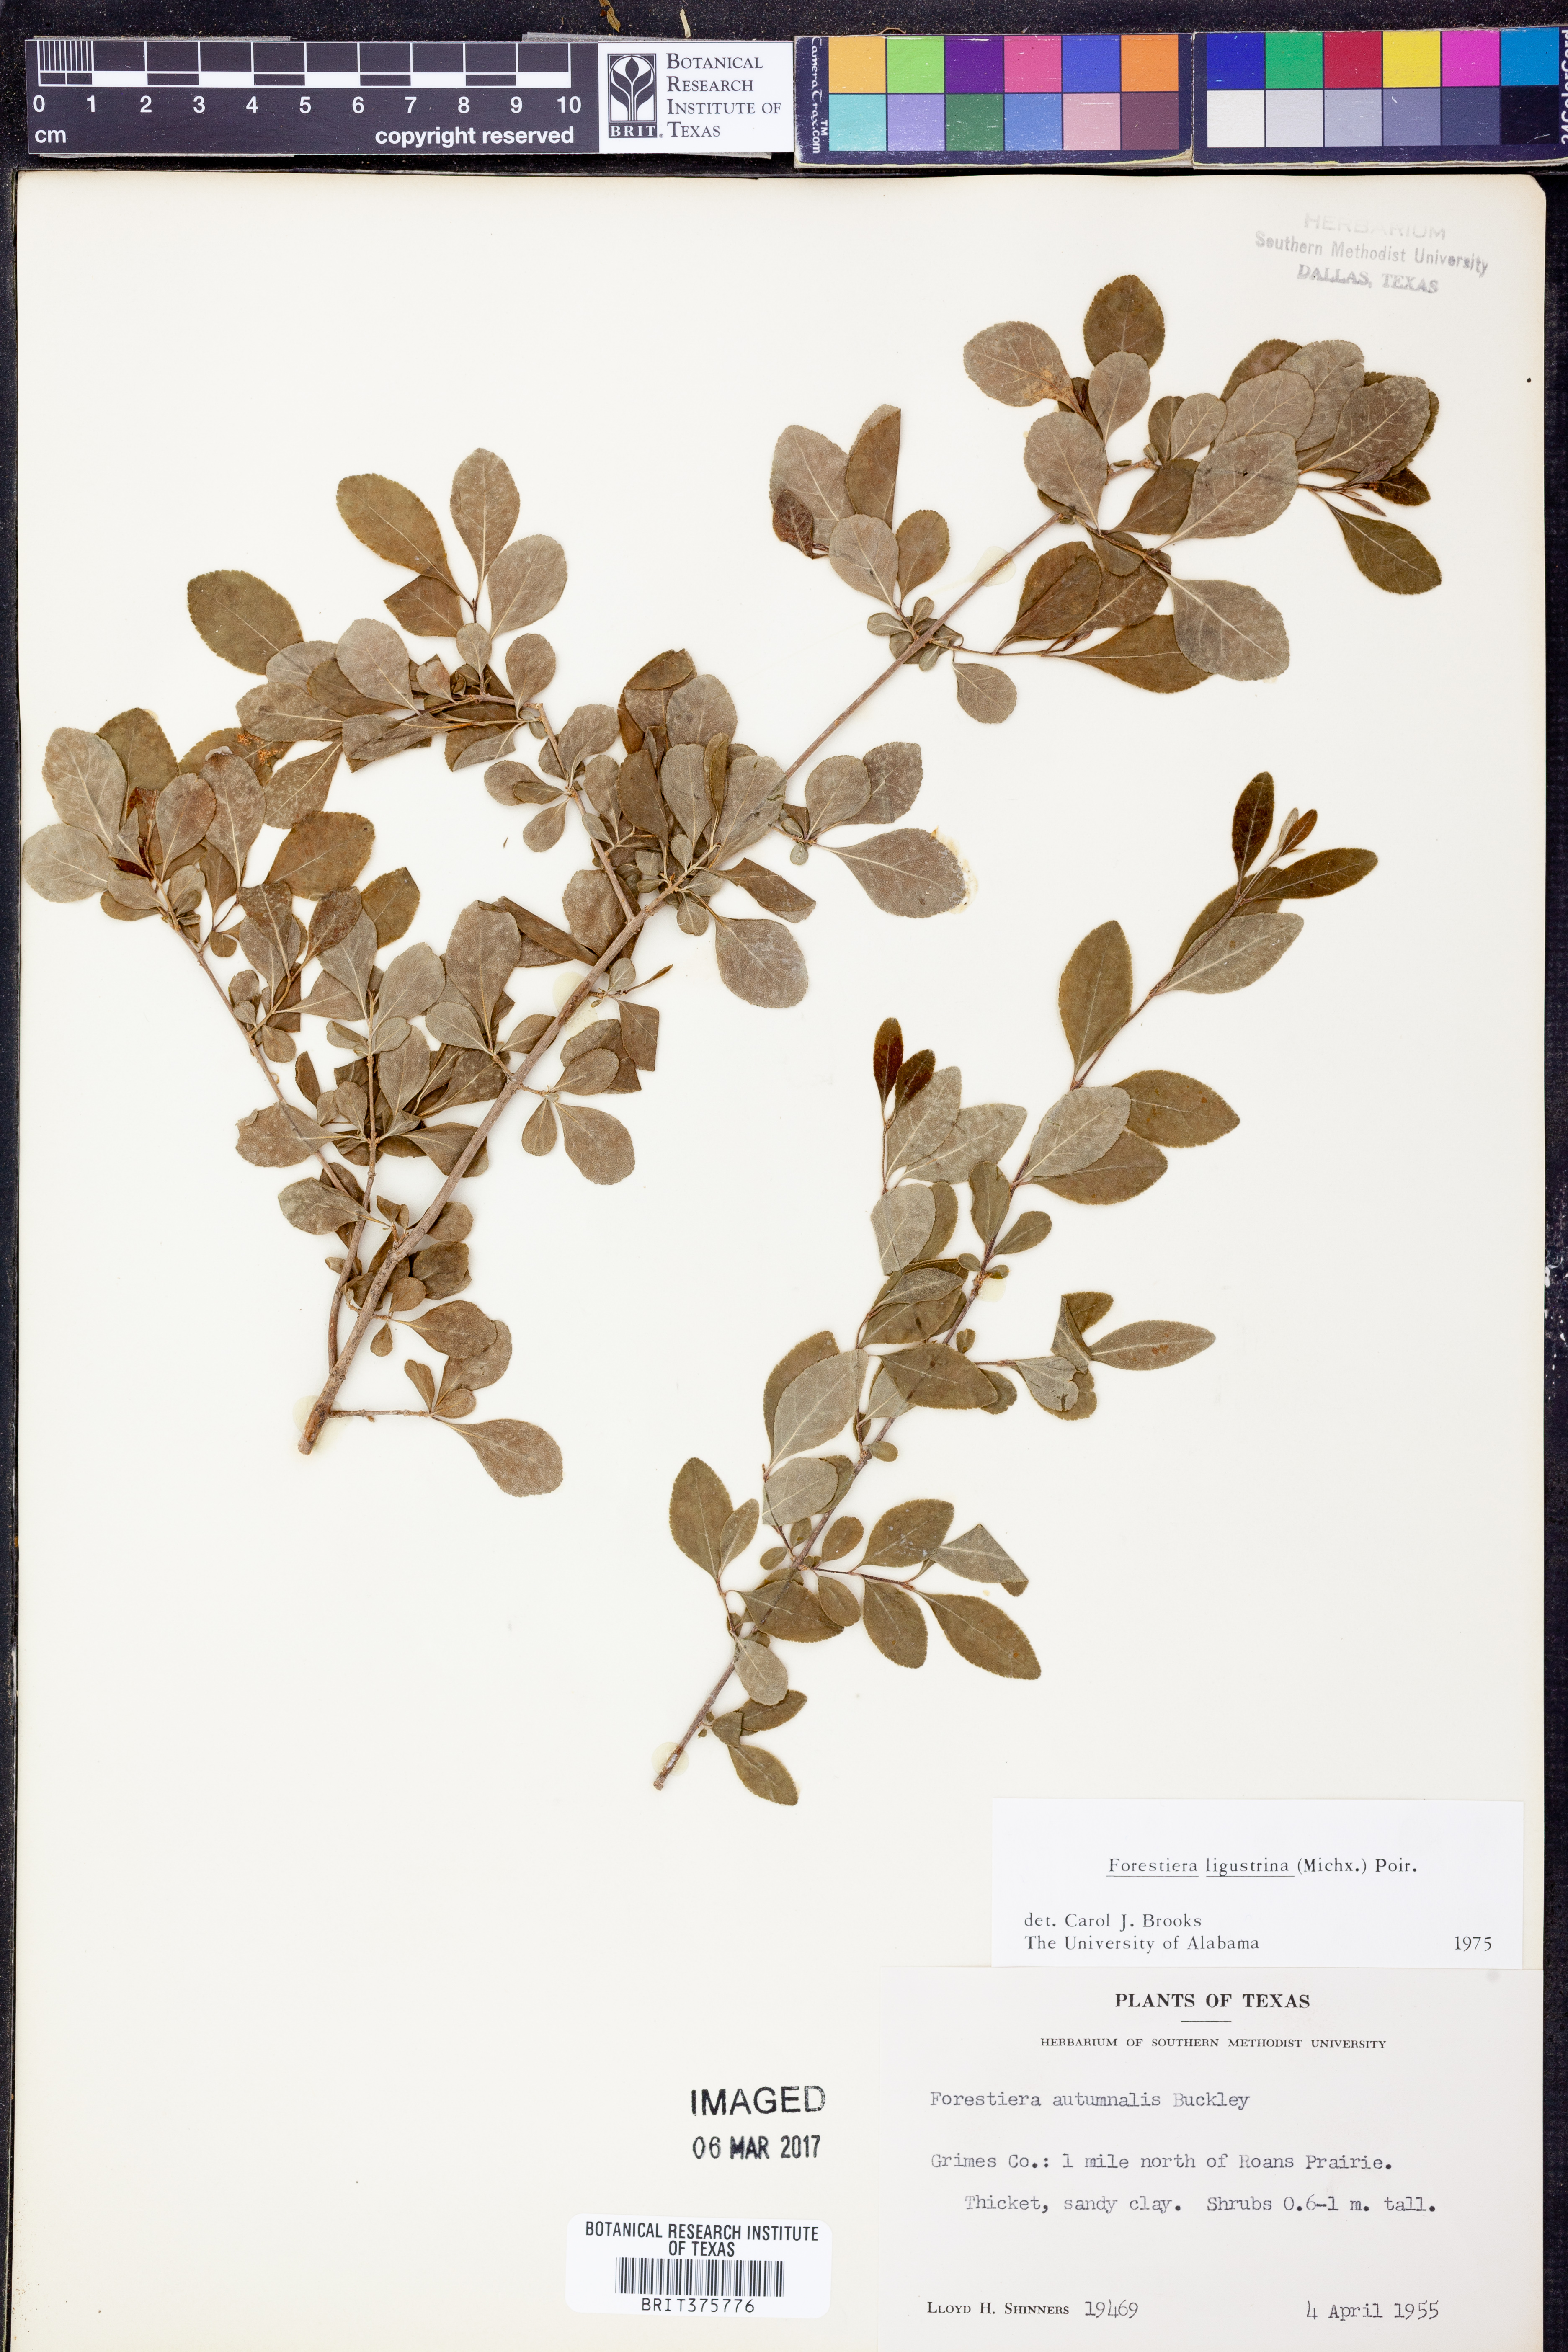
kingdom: Plantae
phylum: Tracheophyta
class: Magnoliopsida
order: Lamiales
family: Oleaceae
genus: Forestiera
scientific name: Forestiera ligustrina
